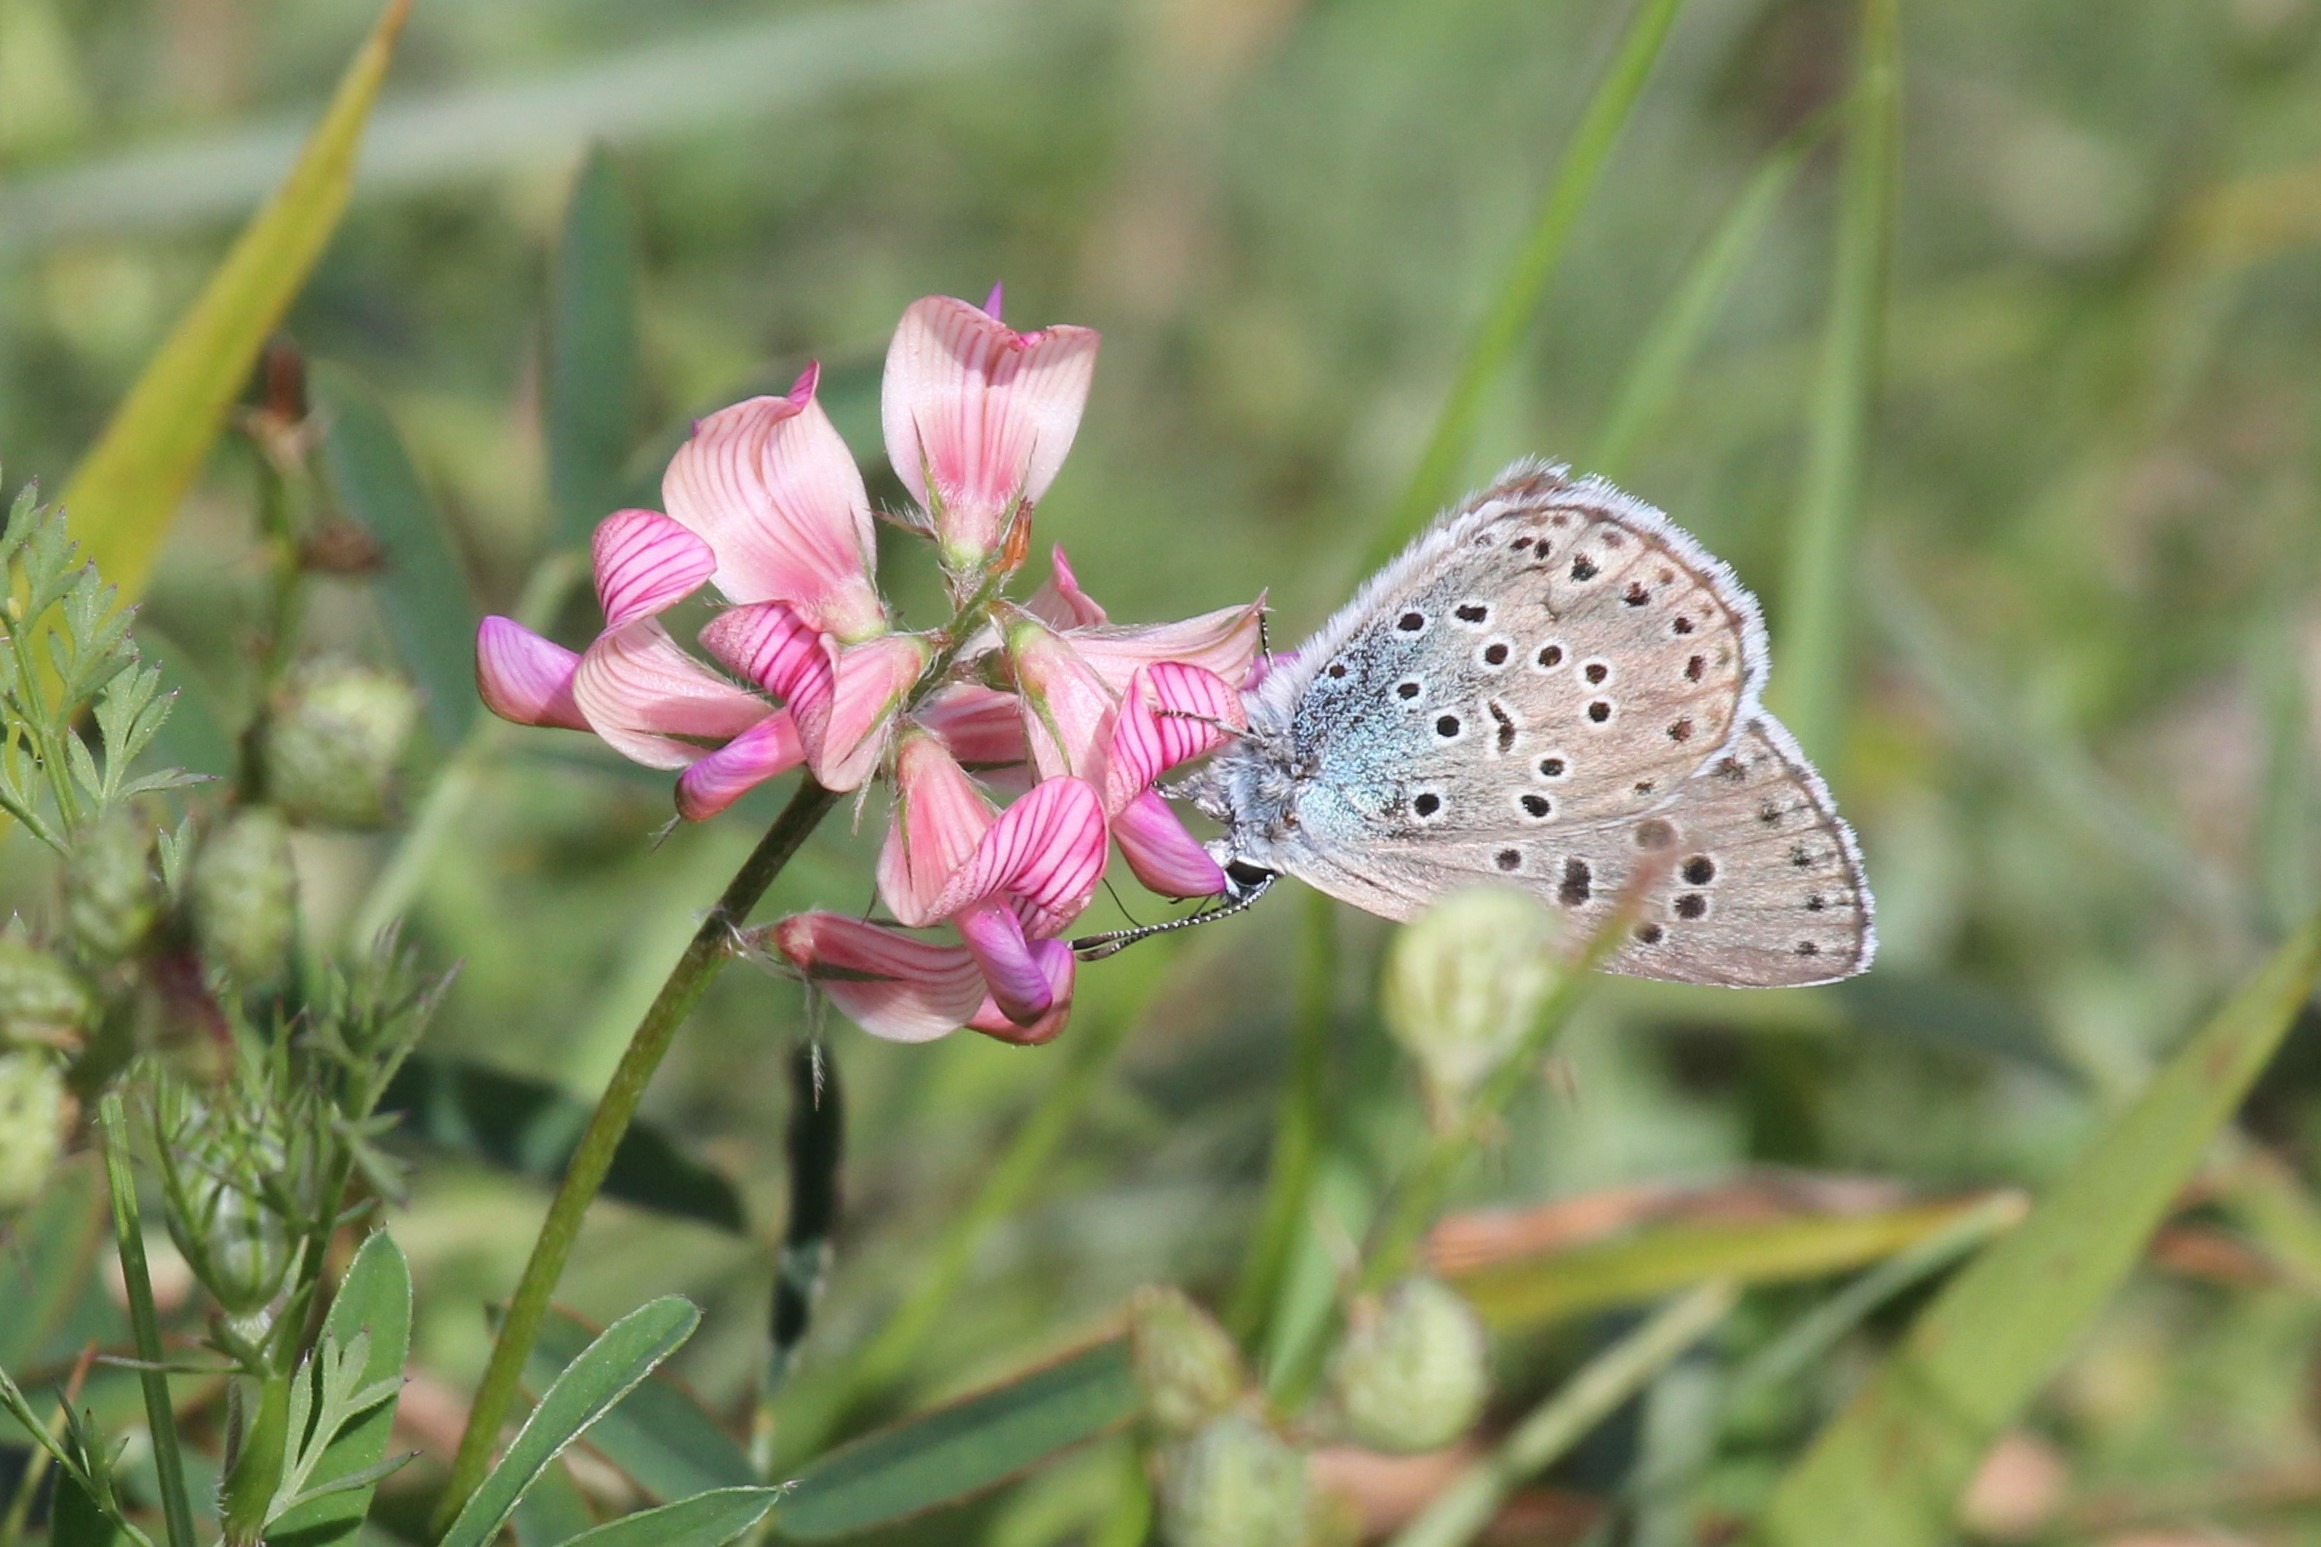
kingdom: Animalia
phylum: Arthropoda
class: Insecta
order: Lepidoptera
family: Lycaenidae
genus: Maculinea
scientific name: Maculinea arion
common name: Sortplettet blåfugl
